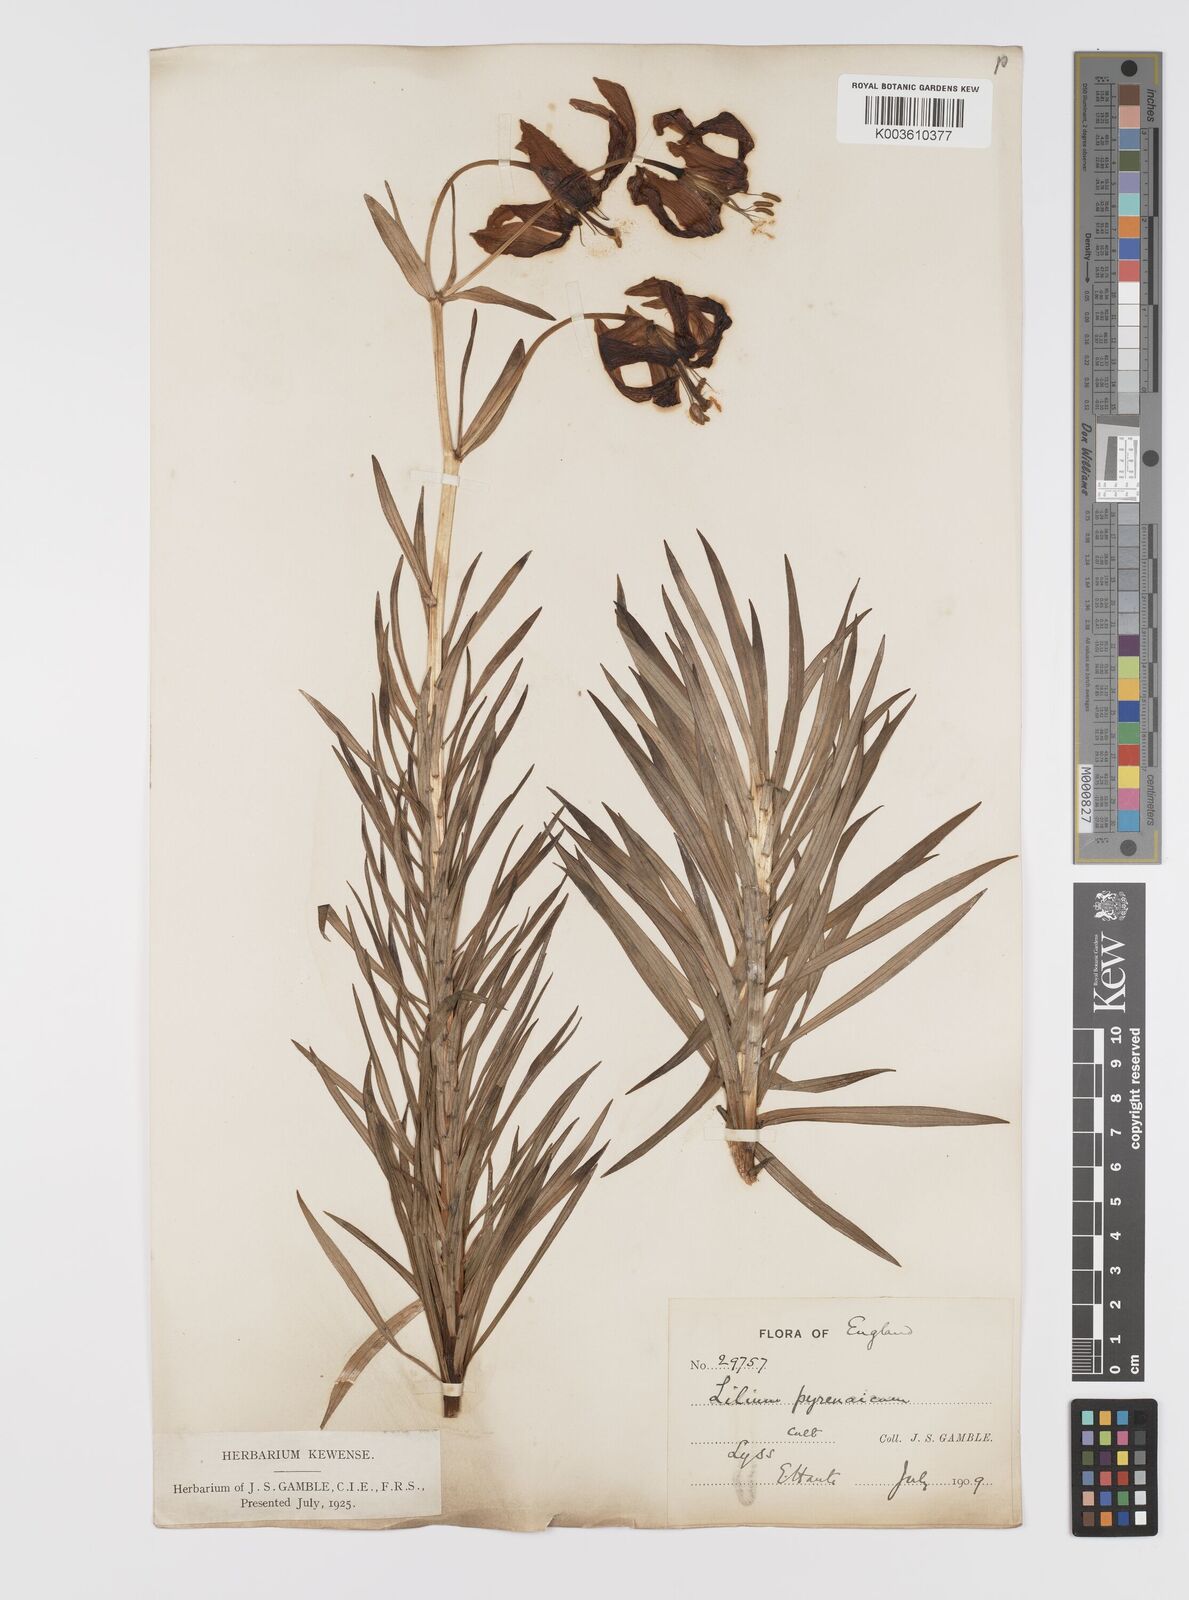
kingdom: Plantae
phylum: Tracheophyta
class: Liliopsida
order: Liliales
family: Liliaceae
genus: Lilium
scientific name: Lilium pyrenaicum
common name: Pyrenean lily
